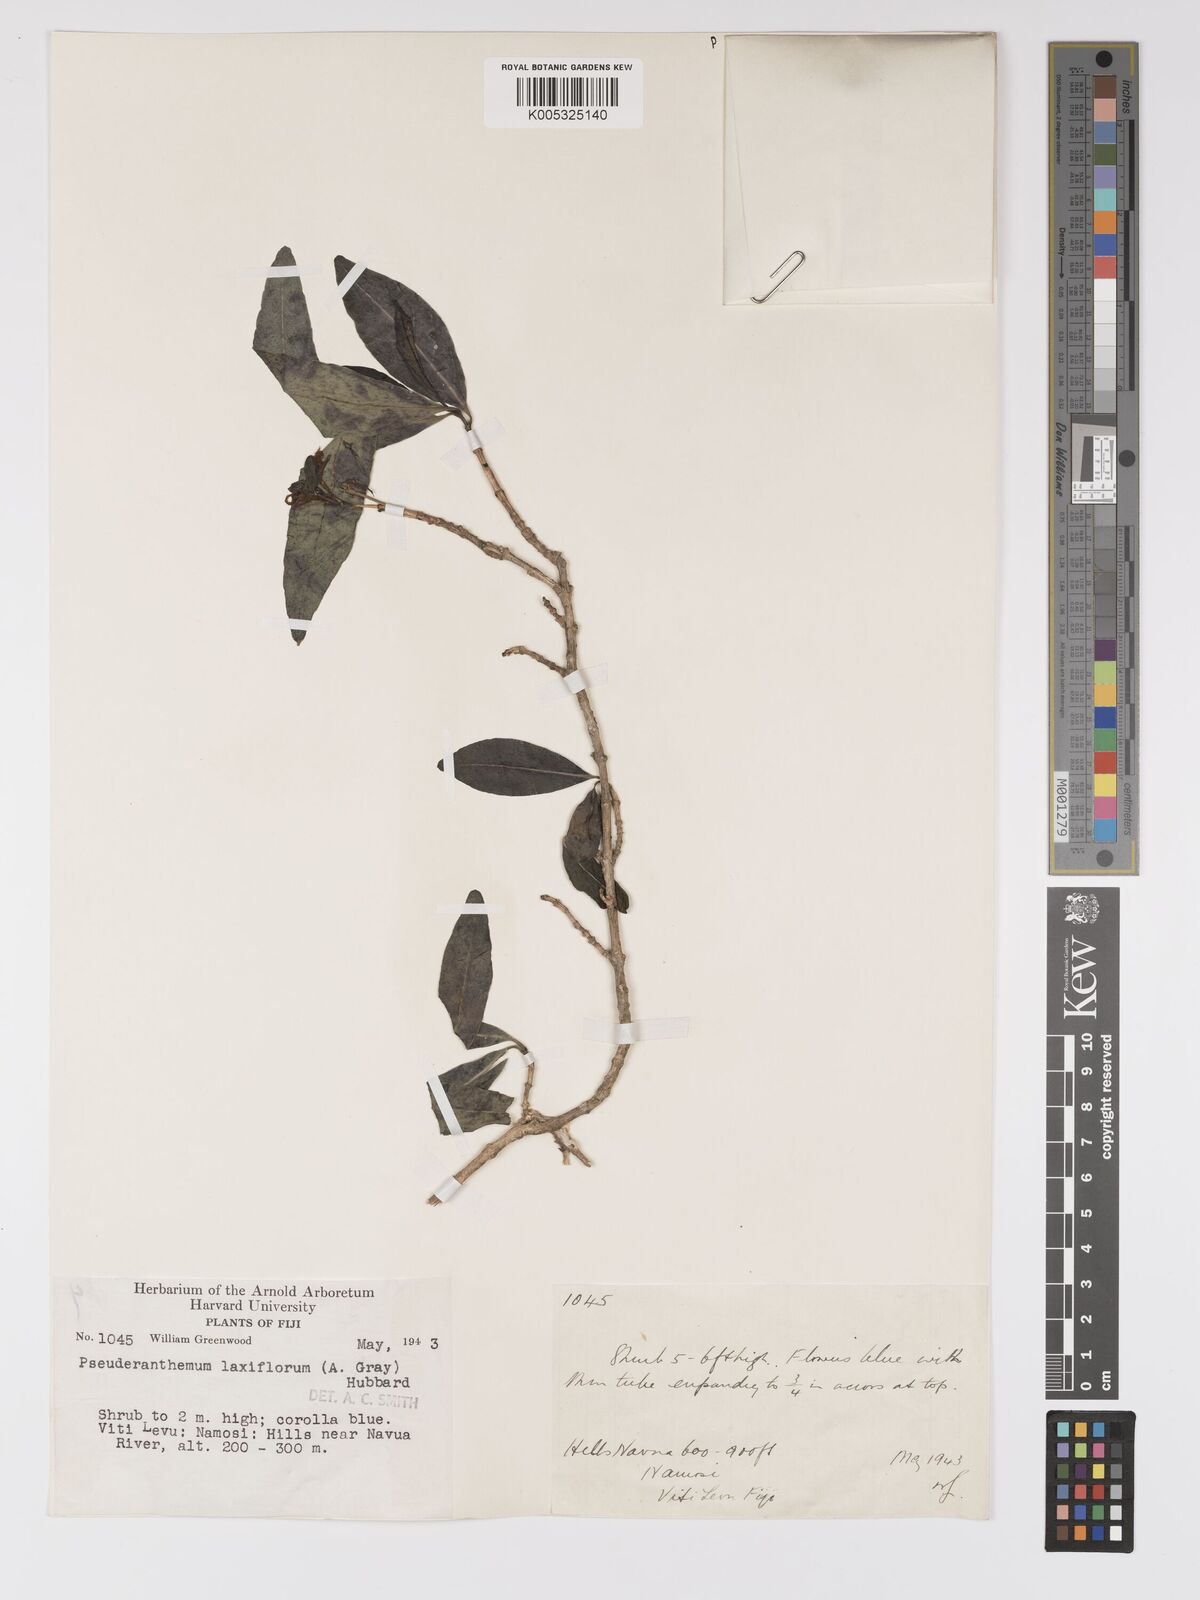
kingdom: Plantae
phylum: Tracheophyta
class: Magnoliopsida
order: Lamiales
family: Acanthaceae
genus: Pseuderanthemum
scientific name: Pseuderanthemum laxiflorum
